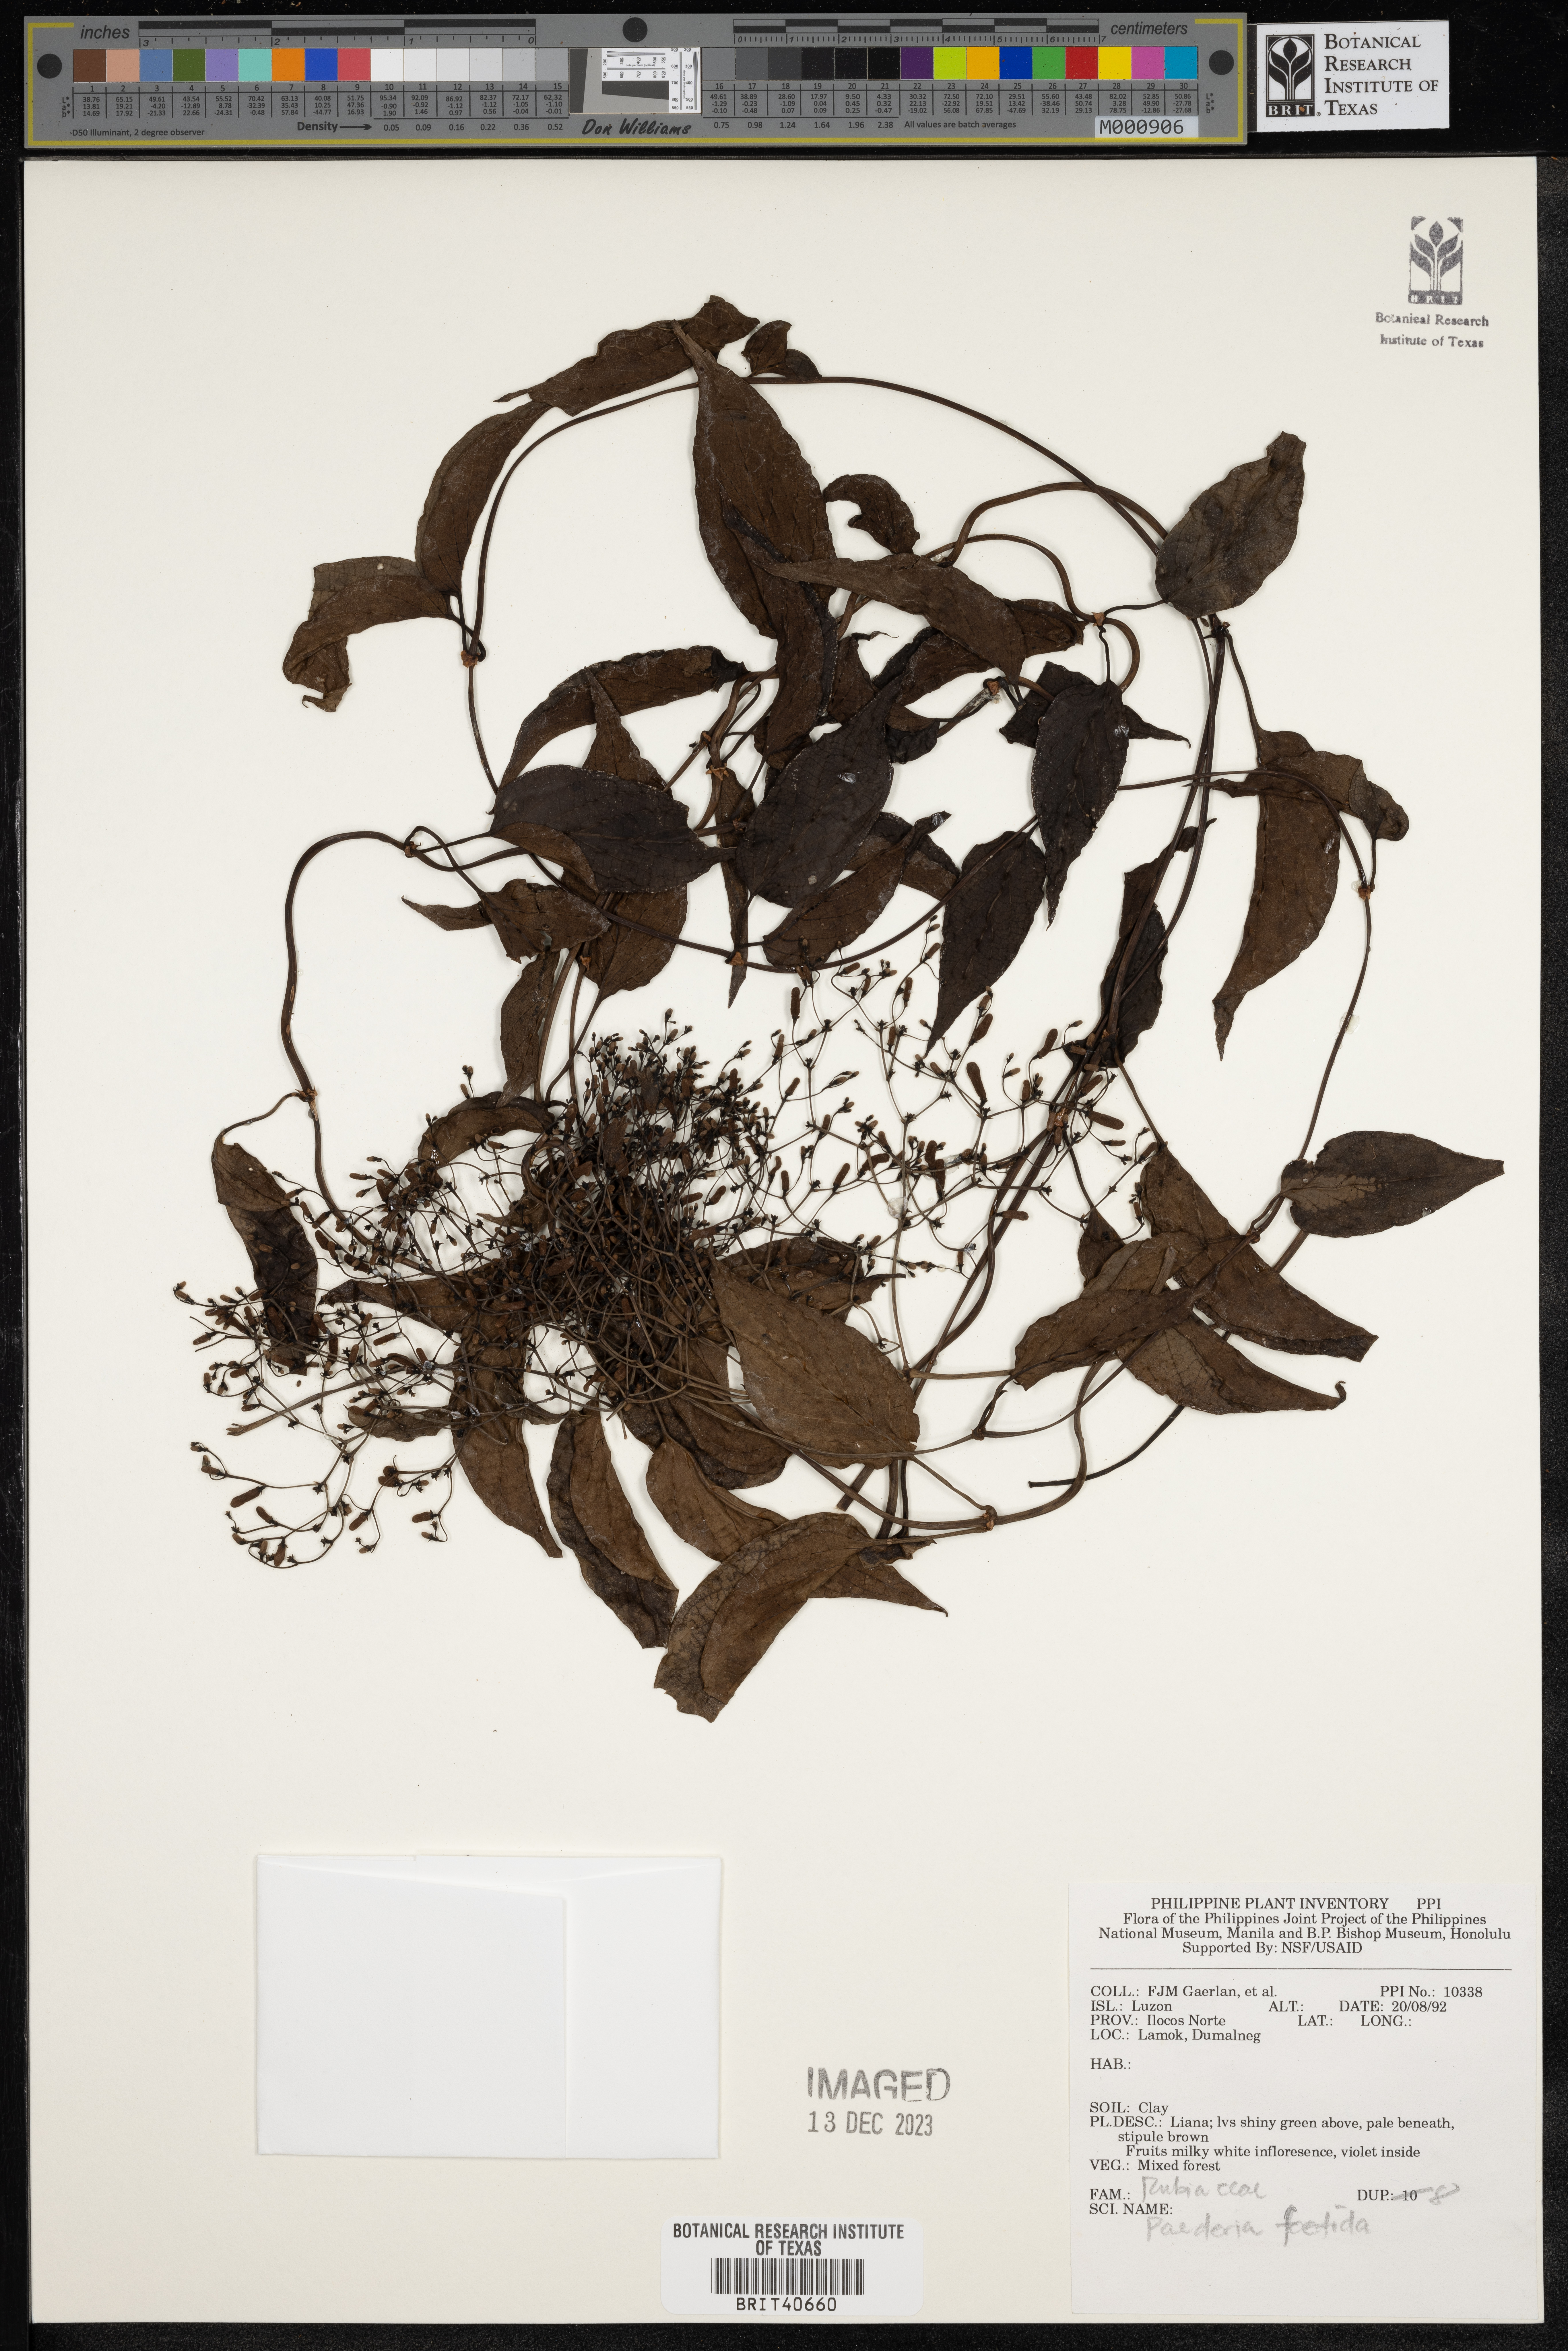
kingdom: Plantae
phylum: Tracheophyta
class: Magnoliopsida
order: Gentianales
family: Rubiaceae
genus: Paederia
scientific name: Paederia foetida
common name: Stinkvine
